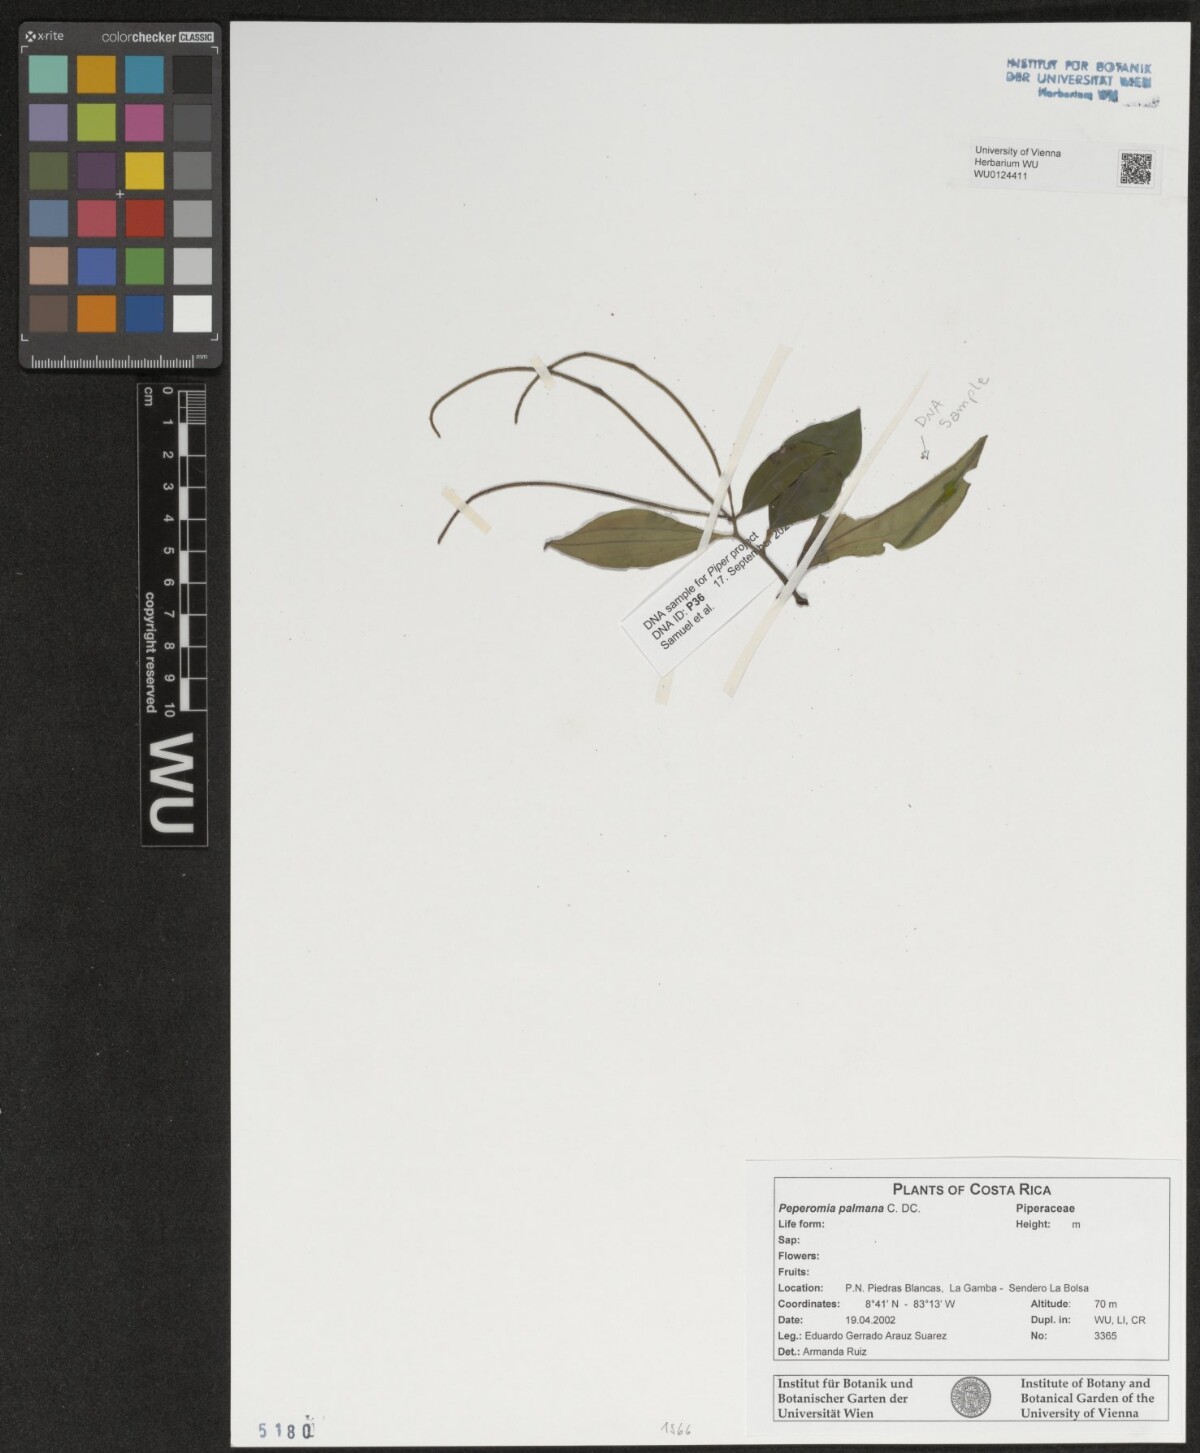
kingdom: Plantae
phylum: Tracheophyta
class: Magnoliopsida
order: Piperales
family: Piperaceae
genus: Peperomia
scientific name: Peperomia palmana
